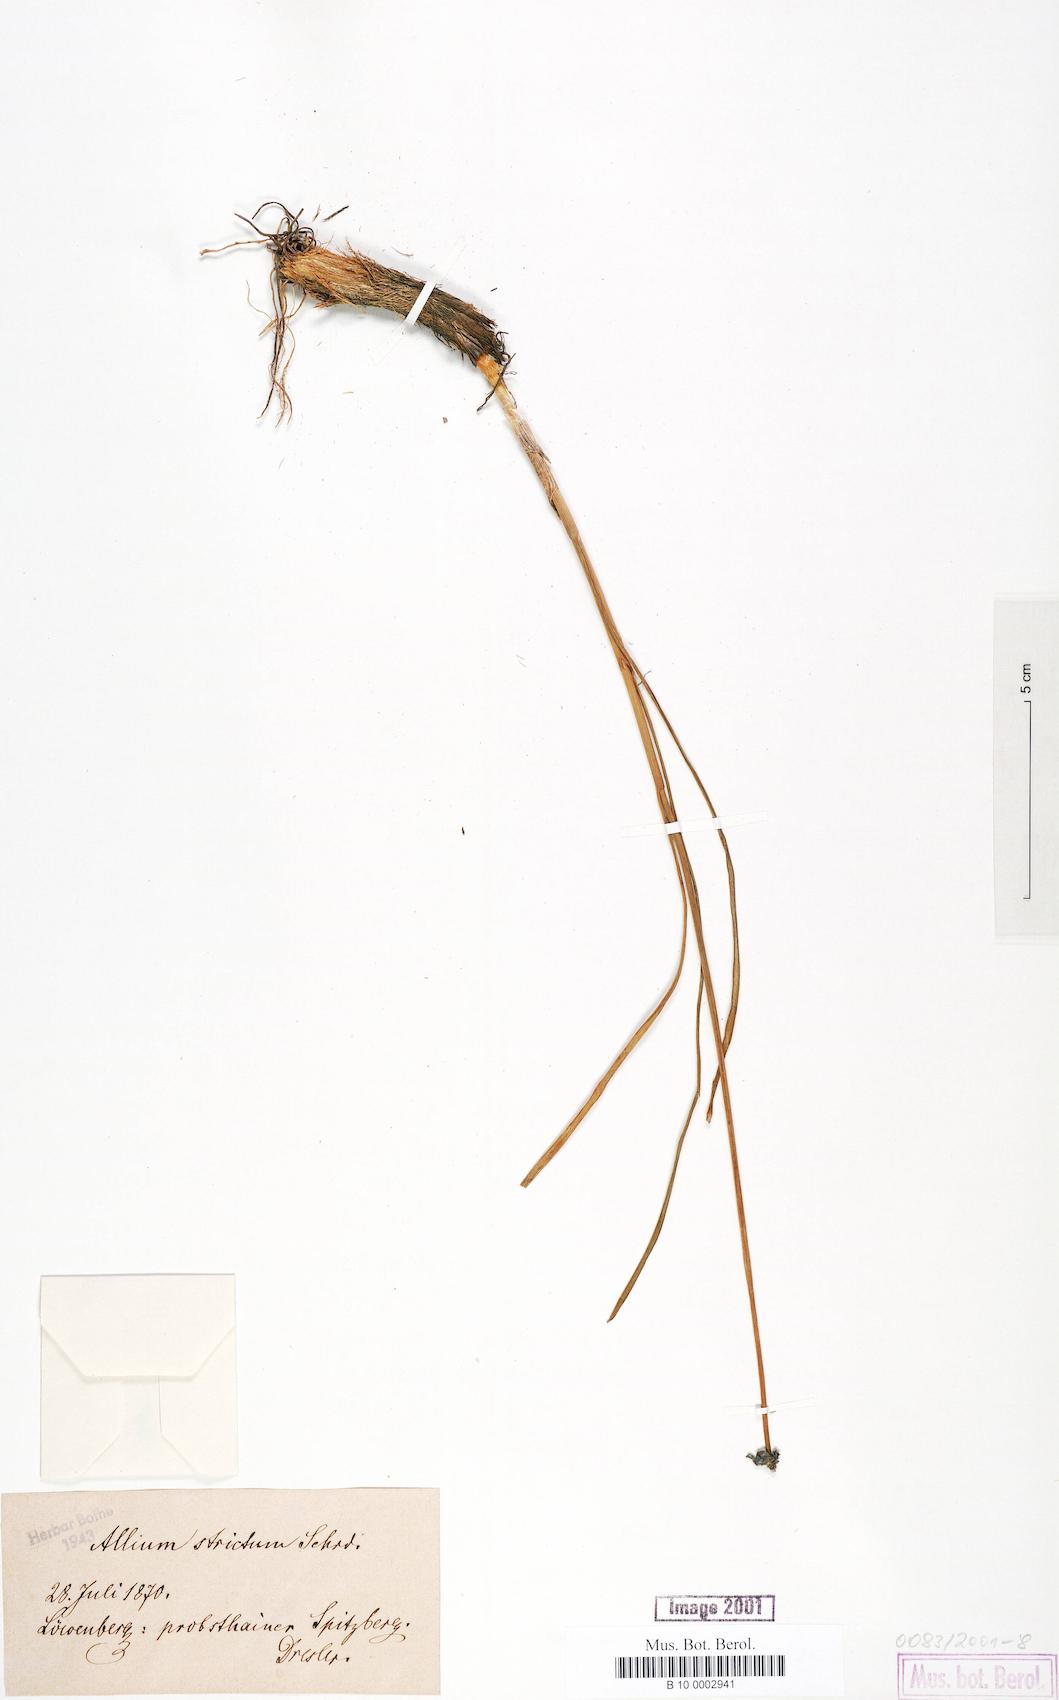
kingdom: Plantae
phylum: Tracheophyta
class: Liliopsida
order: Asparagales
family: Amaryllidaceae
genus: Allium
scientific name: Allium strictum
